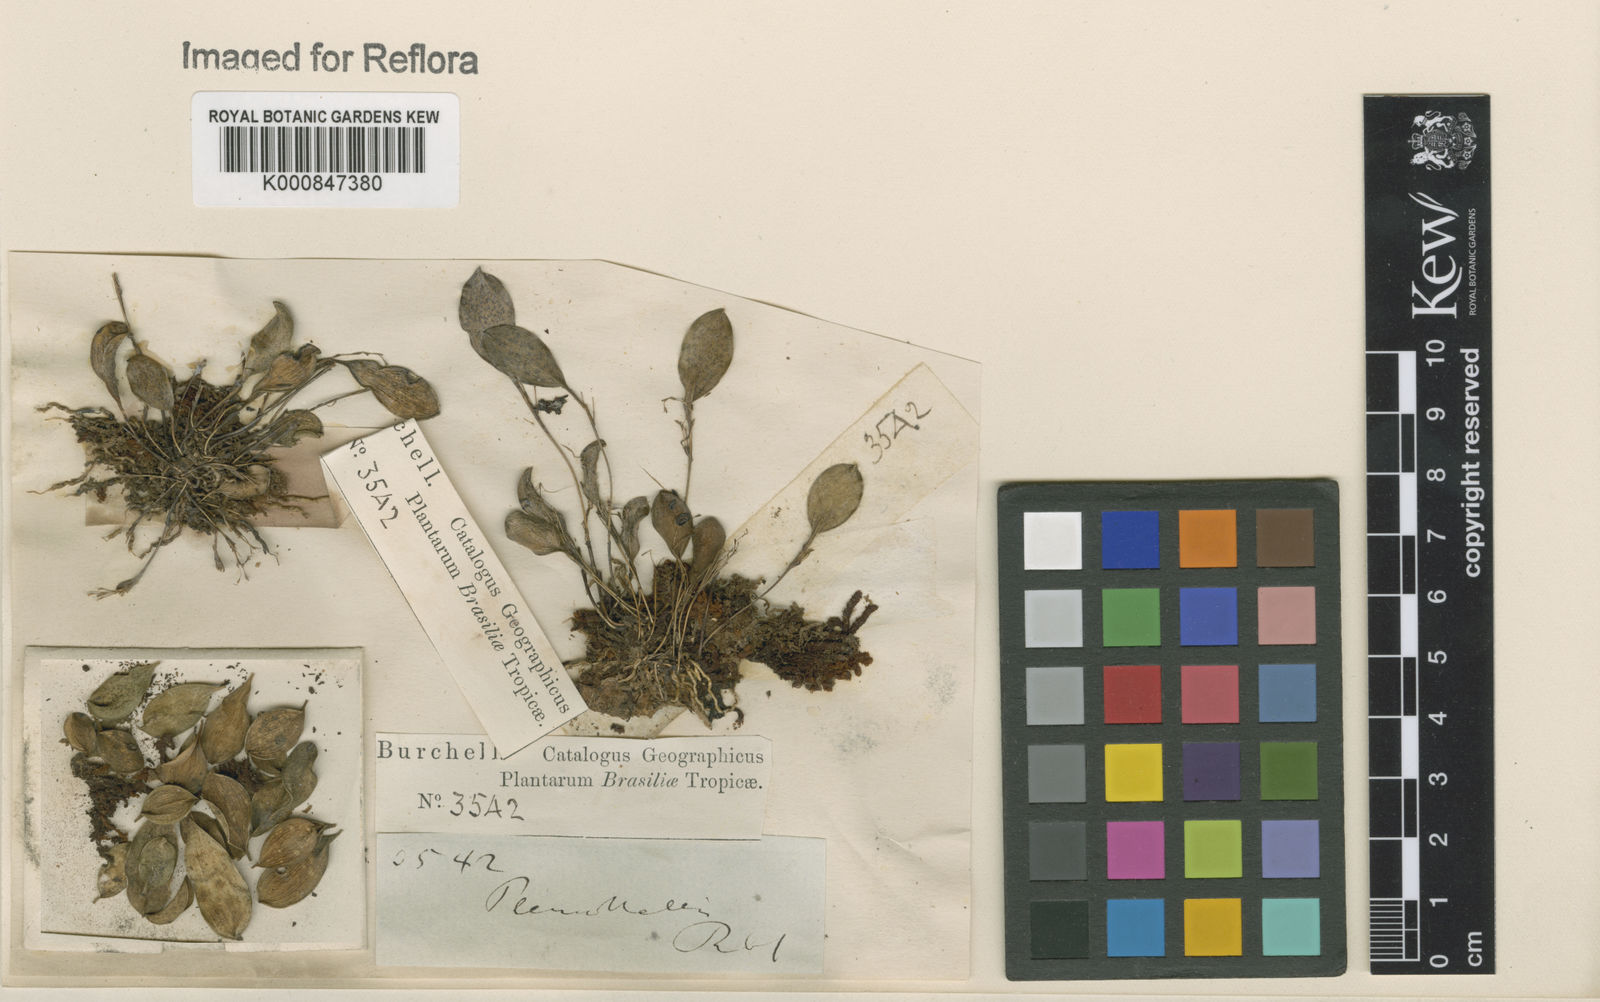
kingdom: Plantae
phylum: Tracheophyta
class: Liliopsida
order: Asparagales
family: Orchidaceae
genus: Pleurothallis
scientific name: Pleurothallis
